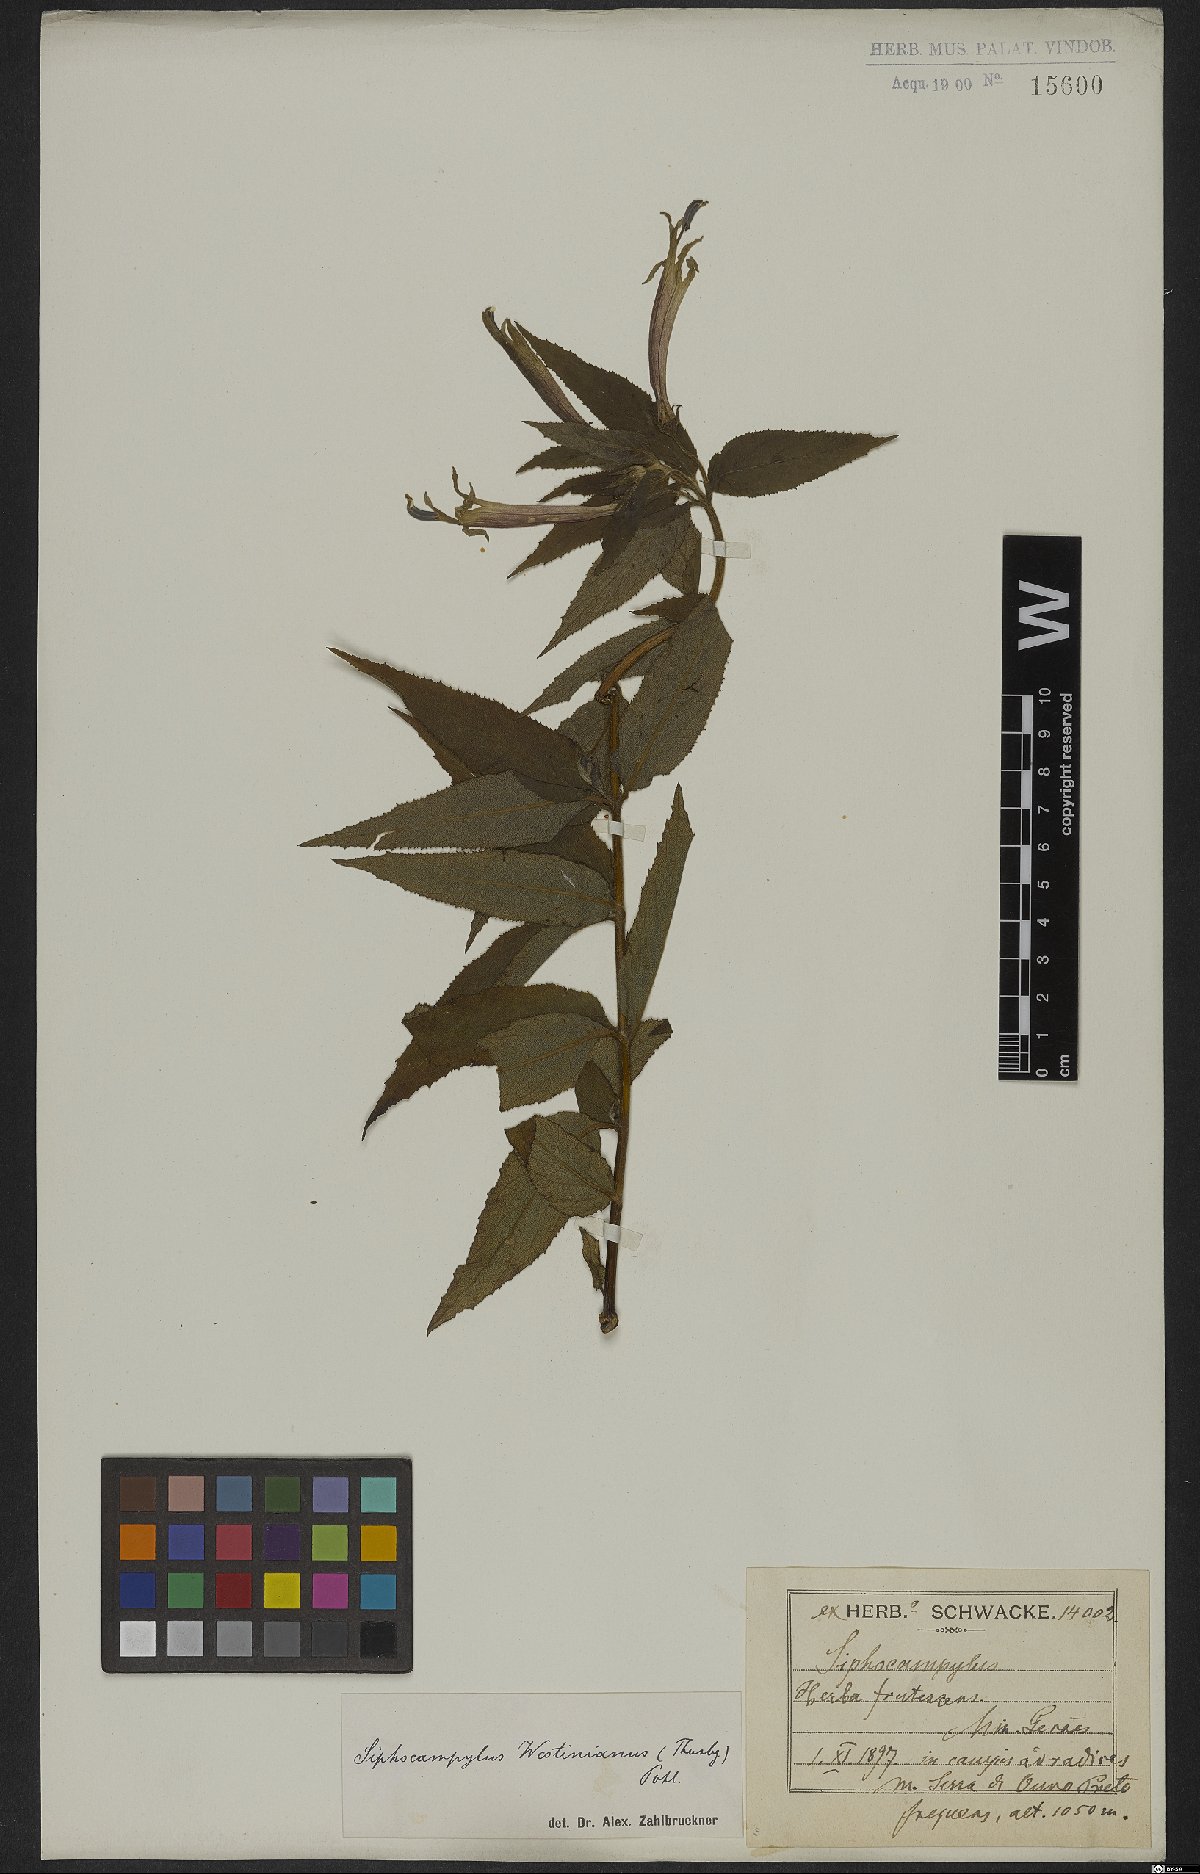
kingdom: Plantae
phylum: Tracheophyta
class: Magnoliopsida
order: Asterales
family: Campanulaceae
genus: Siphocampylus
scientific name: Siphocampylus westinianus
